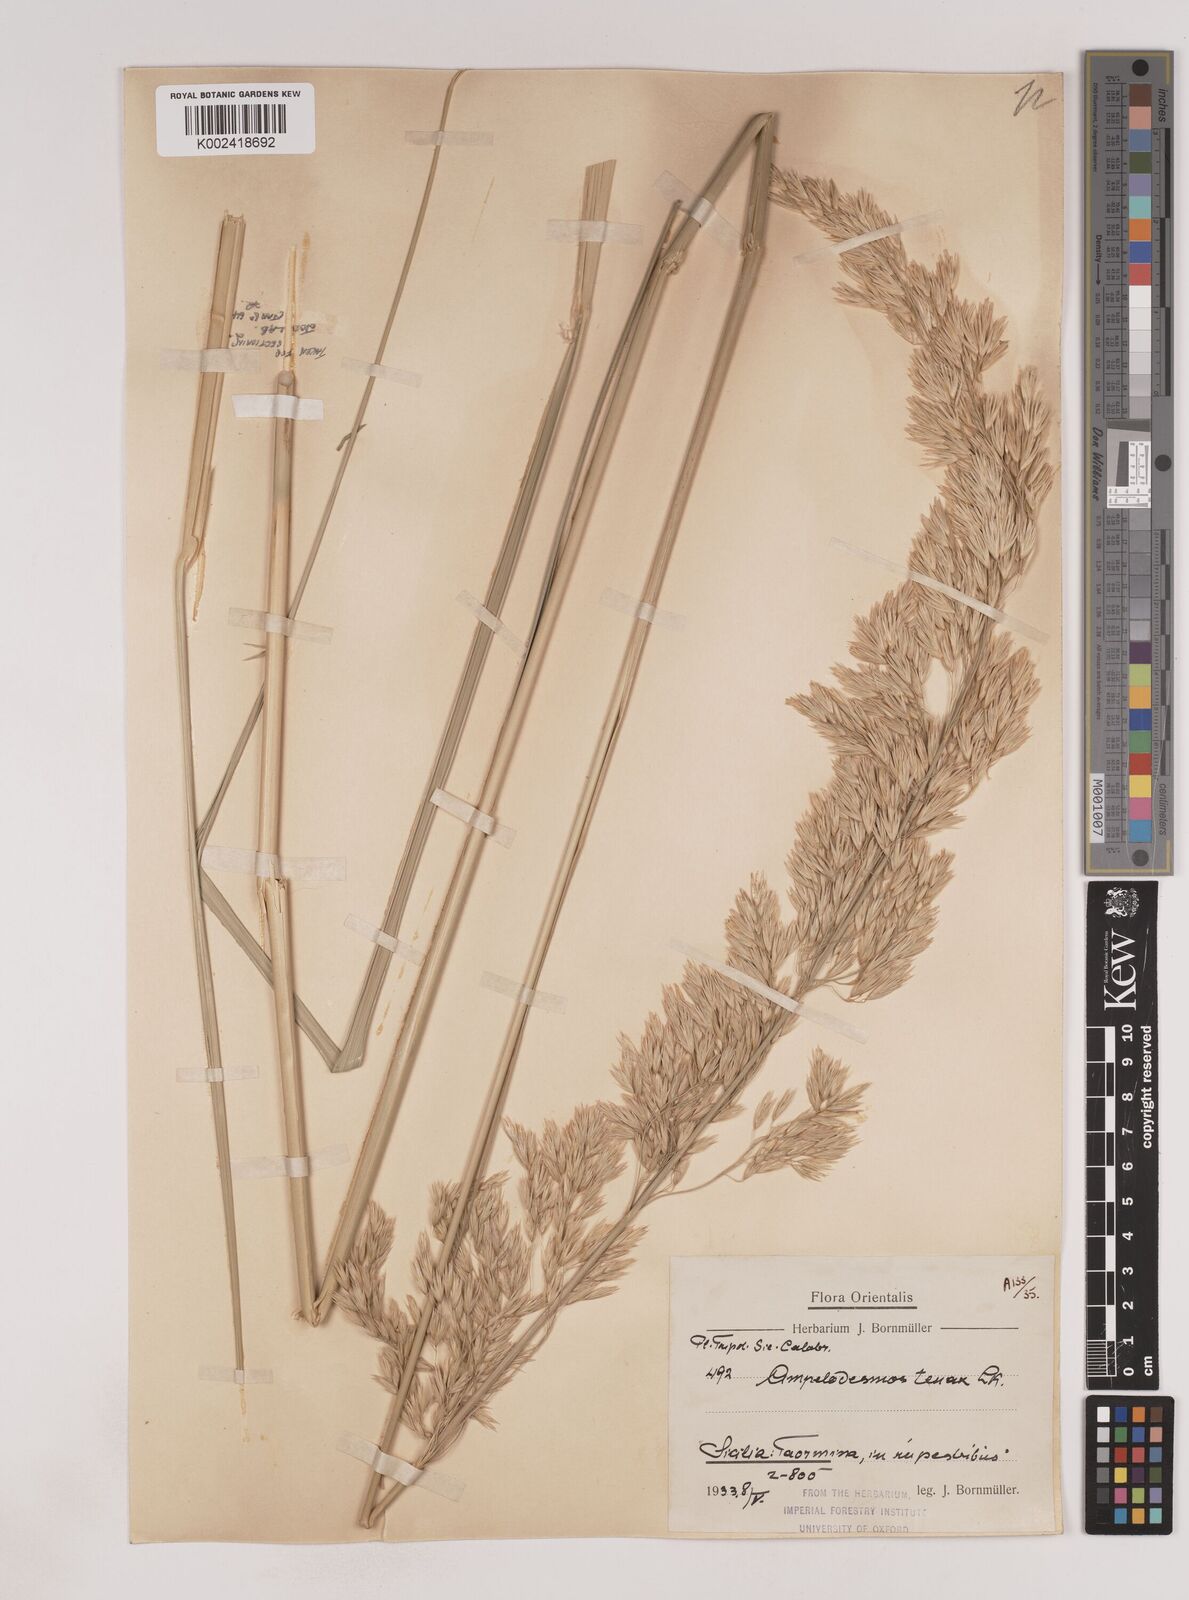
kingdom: Plantae
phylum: Tracheophyta
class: Liliopsida
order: Poales
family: Poaceae
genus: Ampelodesmos
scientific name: Ampelodesmos mauritanicus
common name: Mauritanian grass
